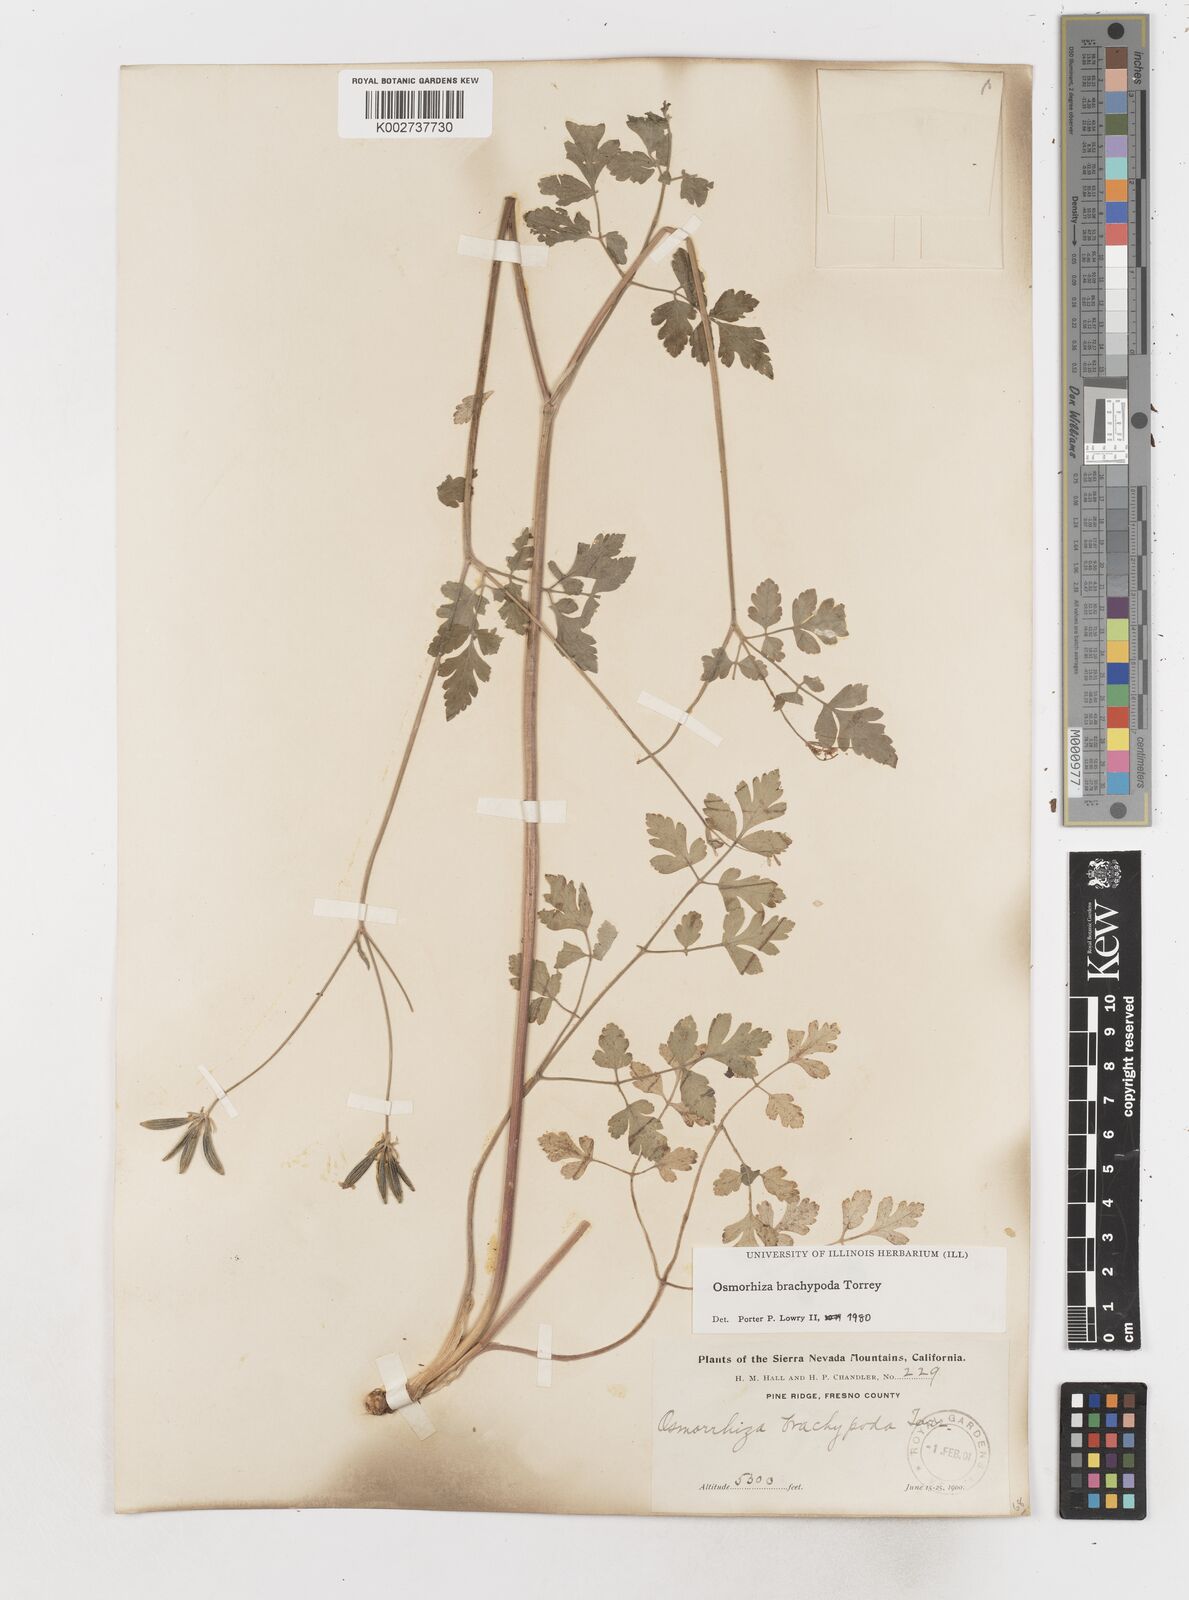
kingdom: Plantae
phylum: Tracheophyta
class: Magnoliopsida
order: Apiales
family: Apiaceae
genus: Osmorhiza
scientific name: Osmorhiza brachypoda
